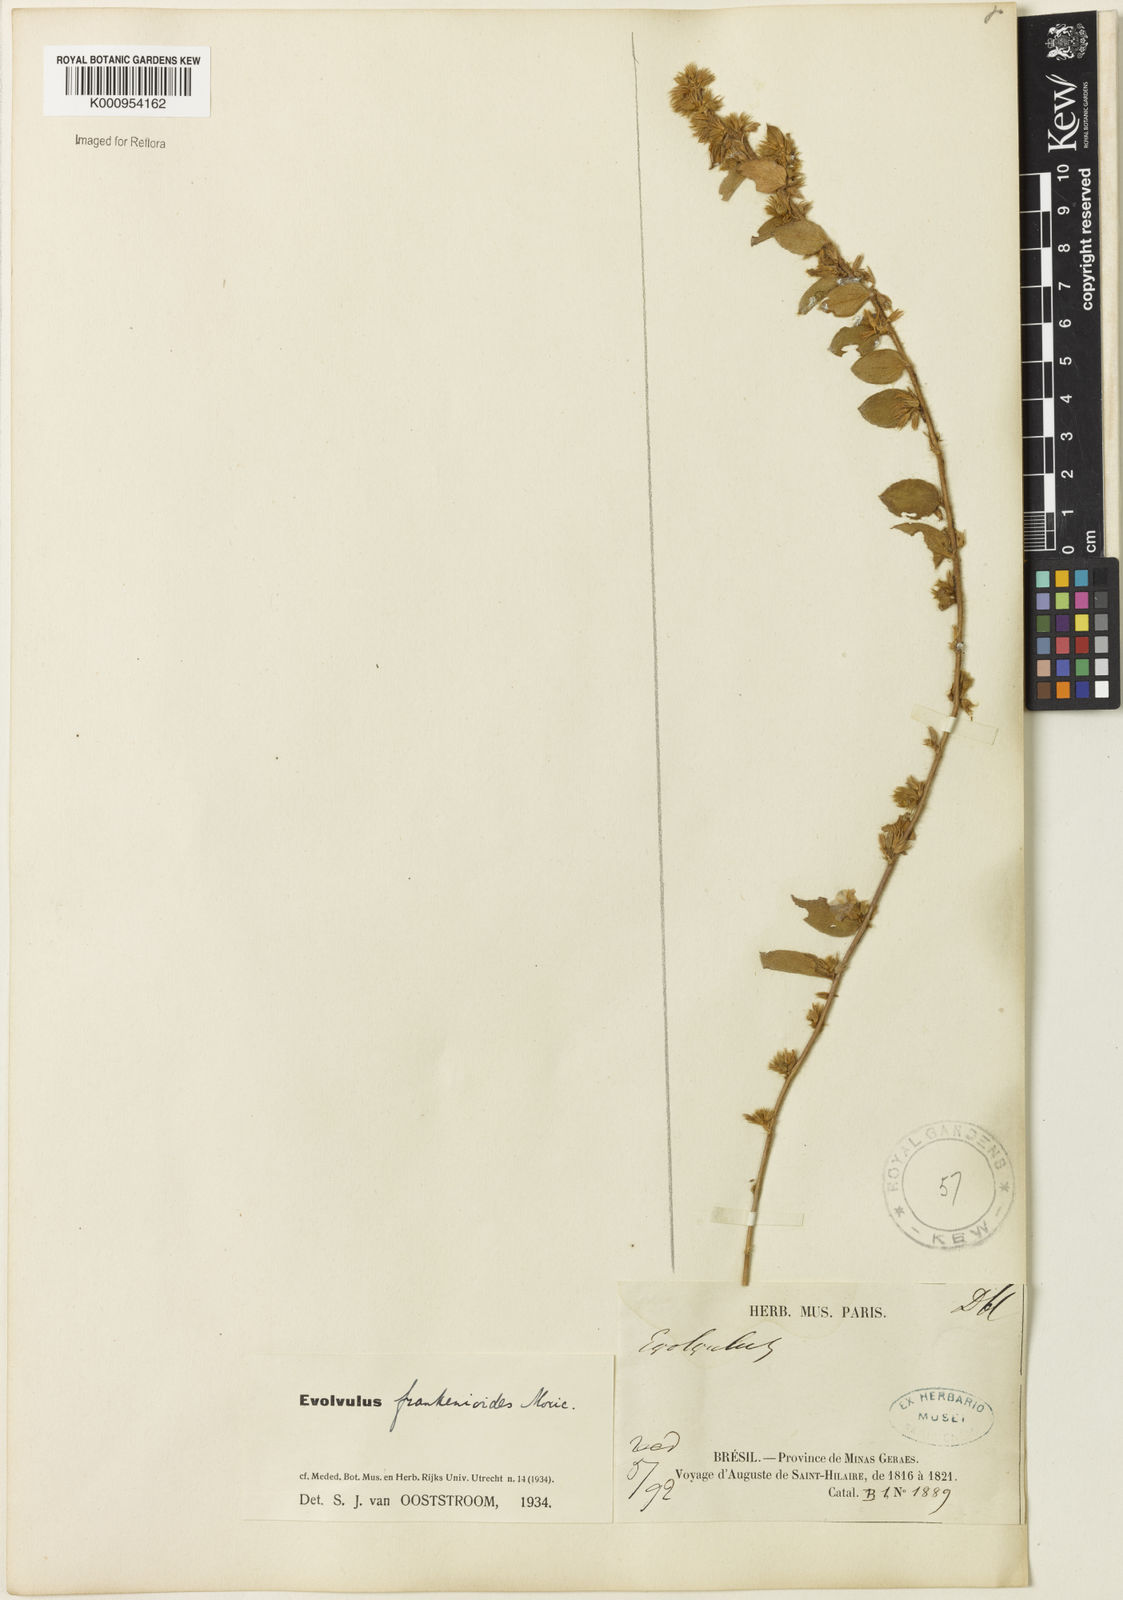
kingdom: Plantae
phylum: Tracheophyta
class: Magnoliopsida
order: Solanales
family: Convolvulaceae
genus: Evolvulus
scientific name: Evolvulus frankenioides
